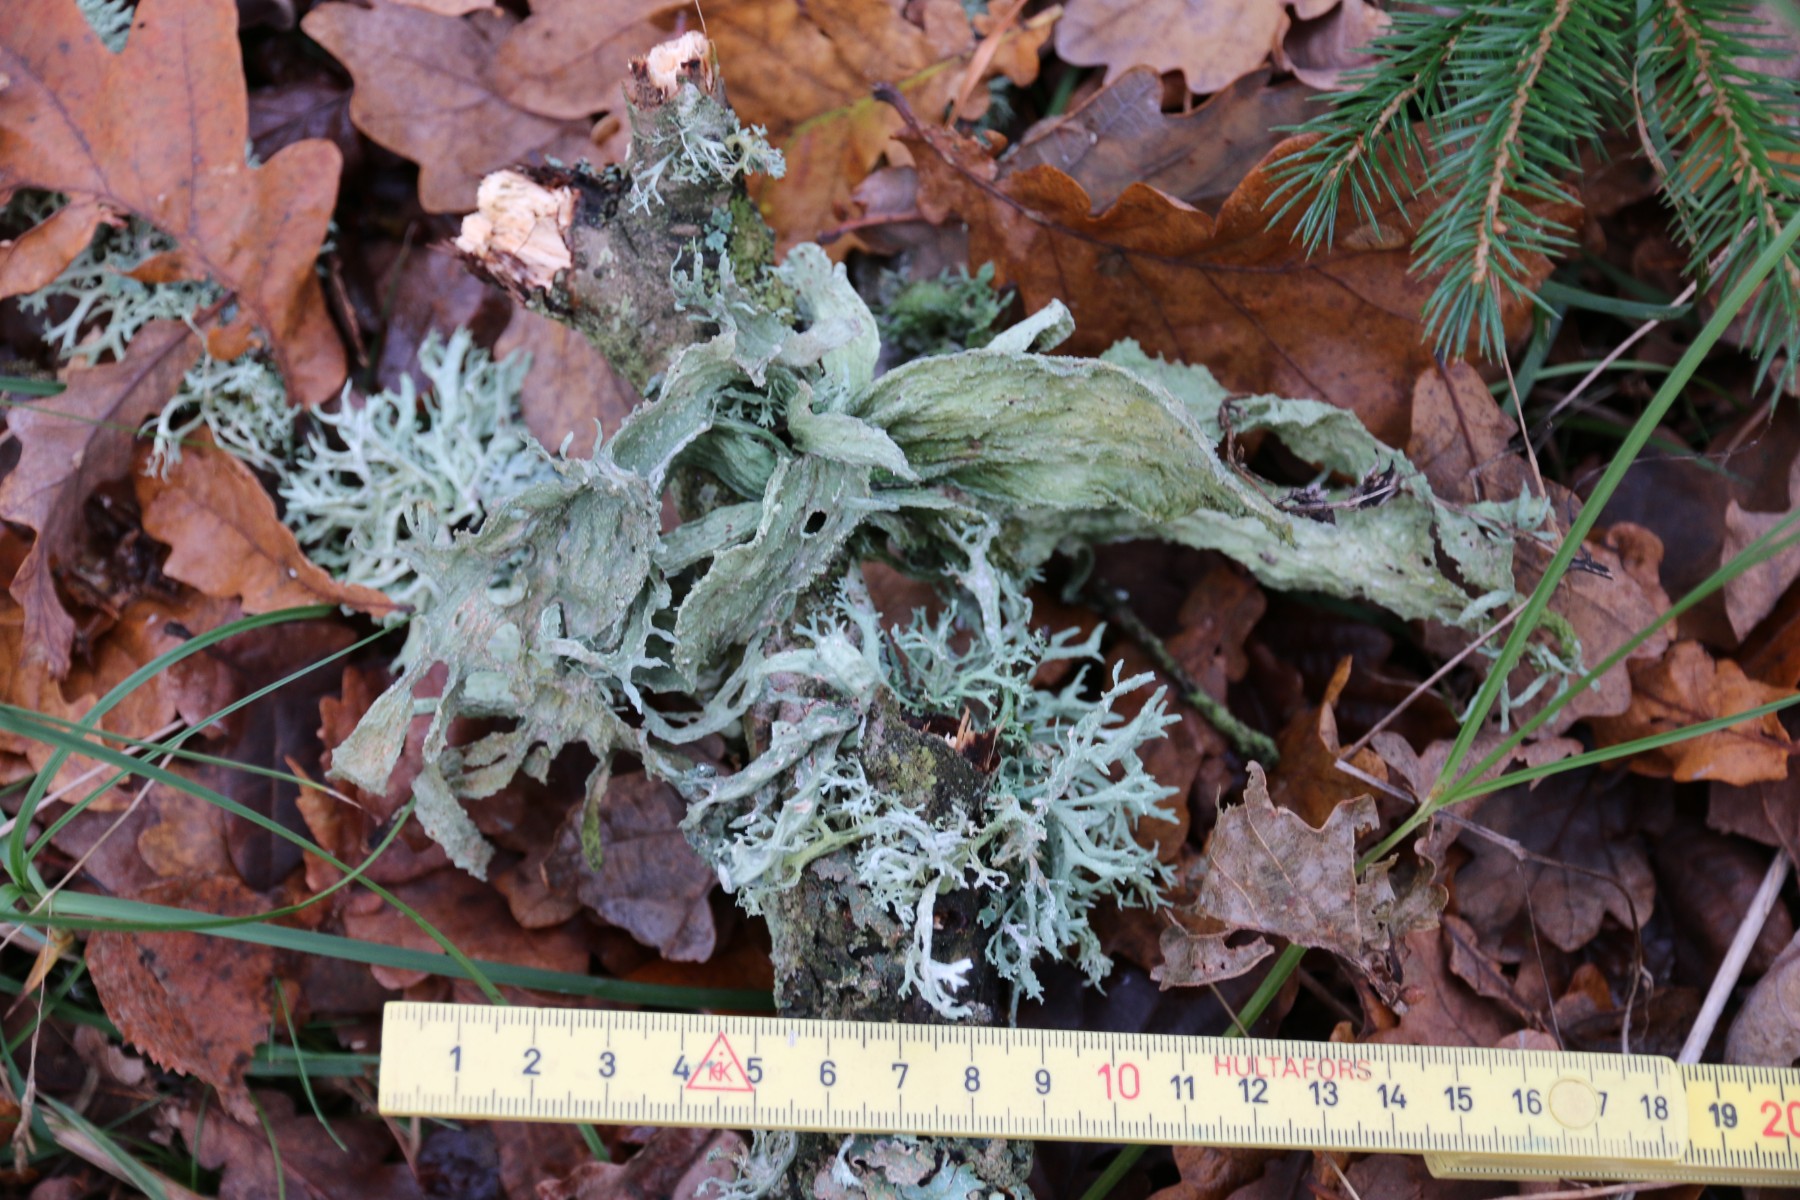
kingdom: Fungi
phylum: Ascomycota
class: Lecanoromycetes
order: Lecanorales
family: Ramalinaceae
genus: Ramalina
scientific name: Ramalina fraxinea
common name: stor grenlav
